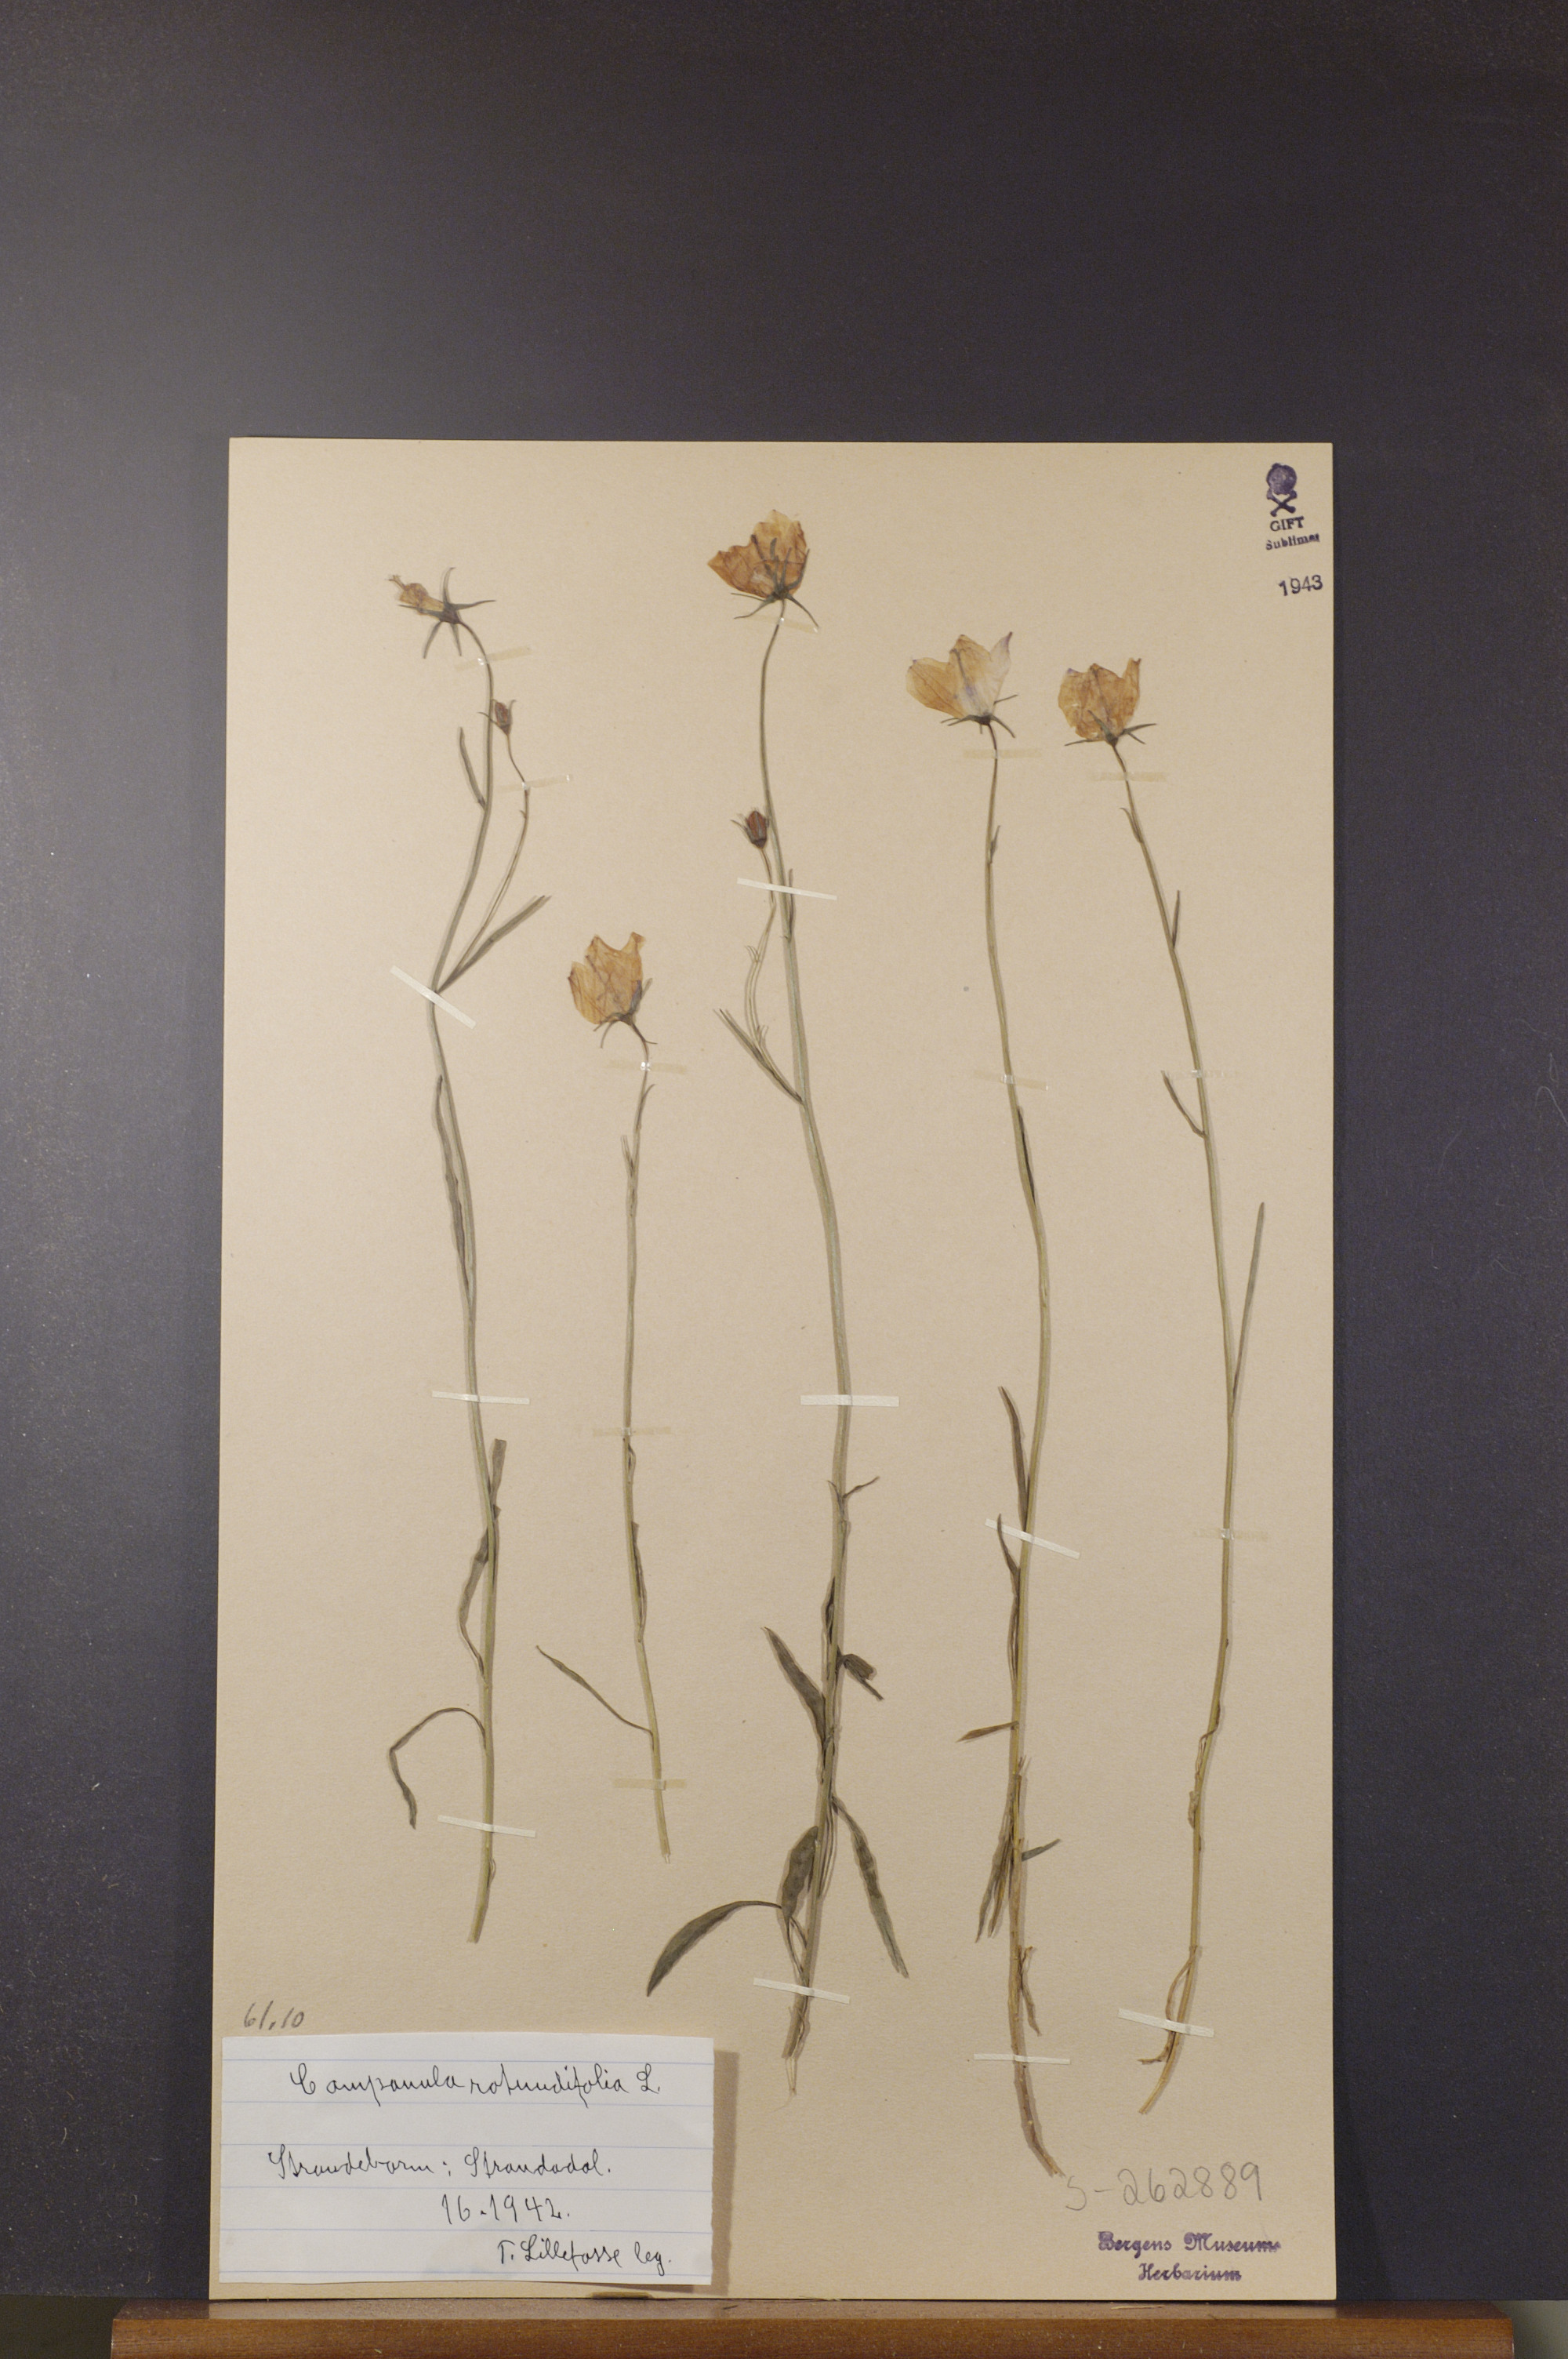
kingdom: Plantae
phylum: Tracheophyta
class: Magnoliopsida
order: Asterales
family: Campanulaceae
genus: Campanula
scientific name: Campanula rotundifolia
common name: Harebell
